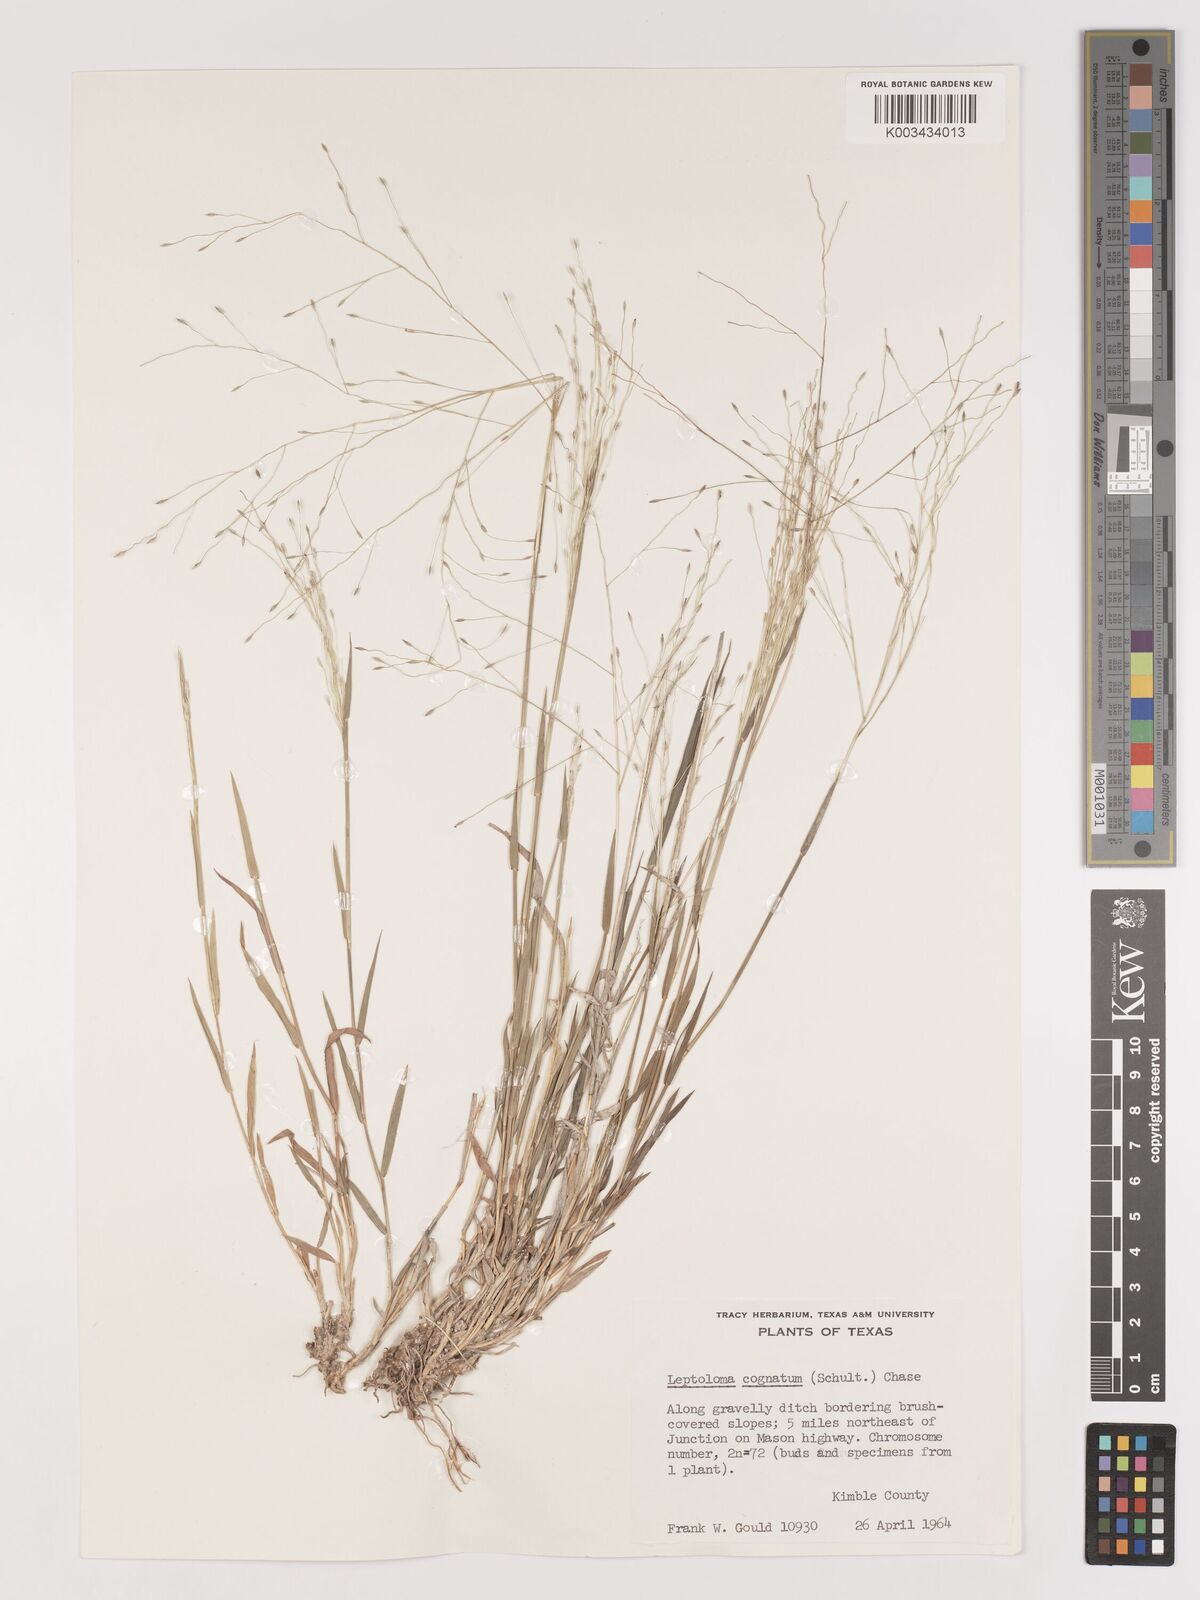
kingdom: Plantae
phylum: Tracheophyta
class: Liliopsida
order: Poales
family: Poaceae
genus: Digitaria
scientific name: Digitaria cognata
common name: Fall witchgrass
